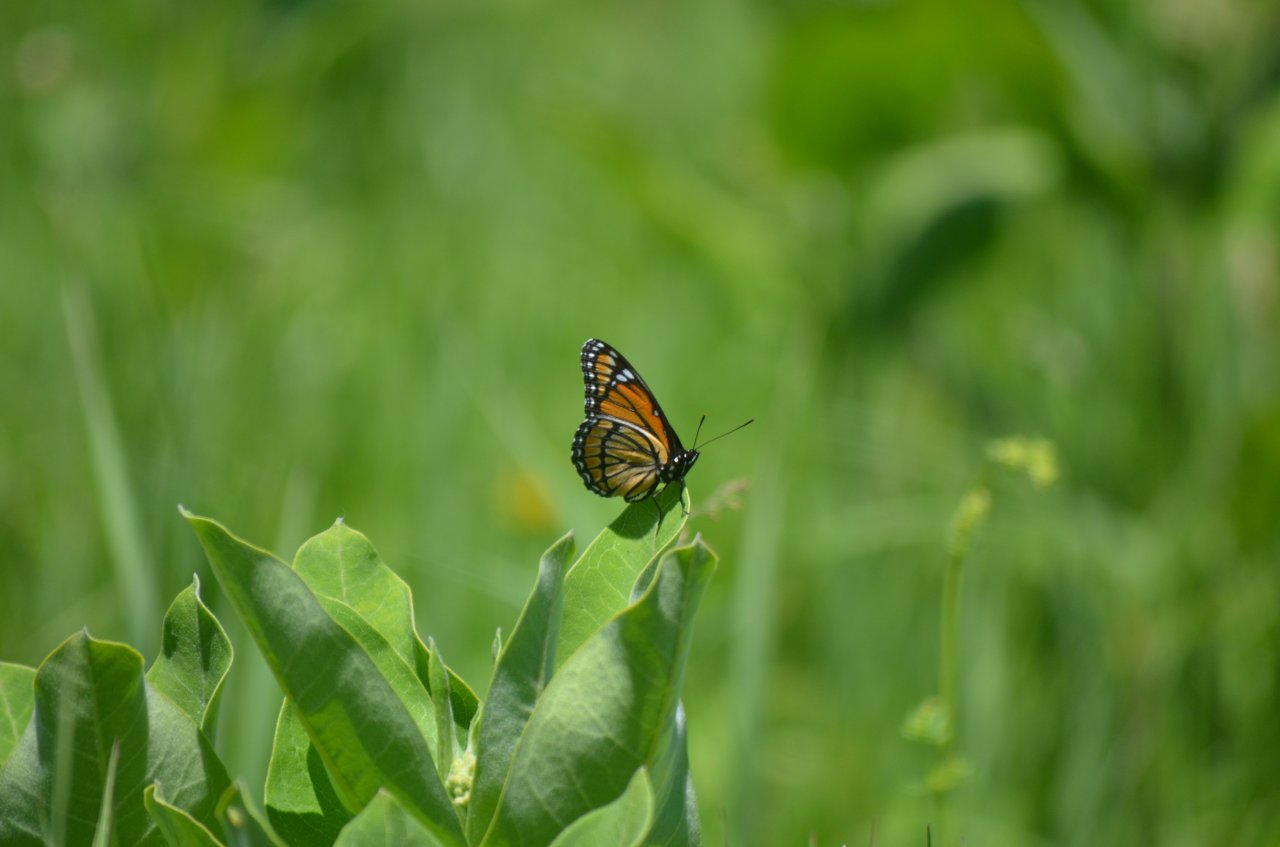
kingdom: Animalia
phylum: Arthropoda
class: Insecta
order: Lepidoptera
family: Nymphalidae
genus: Limenitis
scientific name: Limenitis archippus
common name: Viceroy
